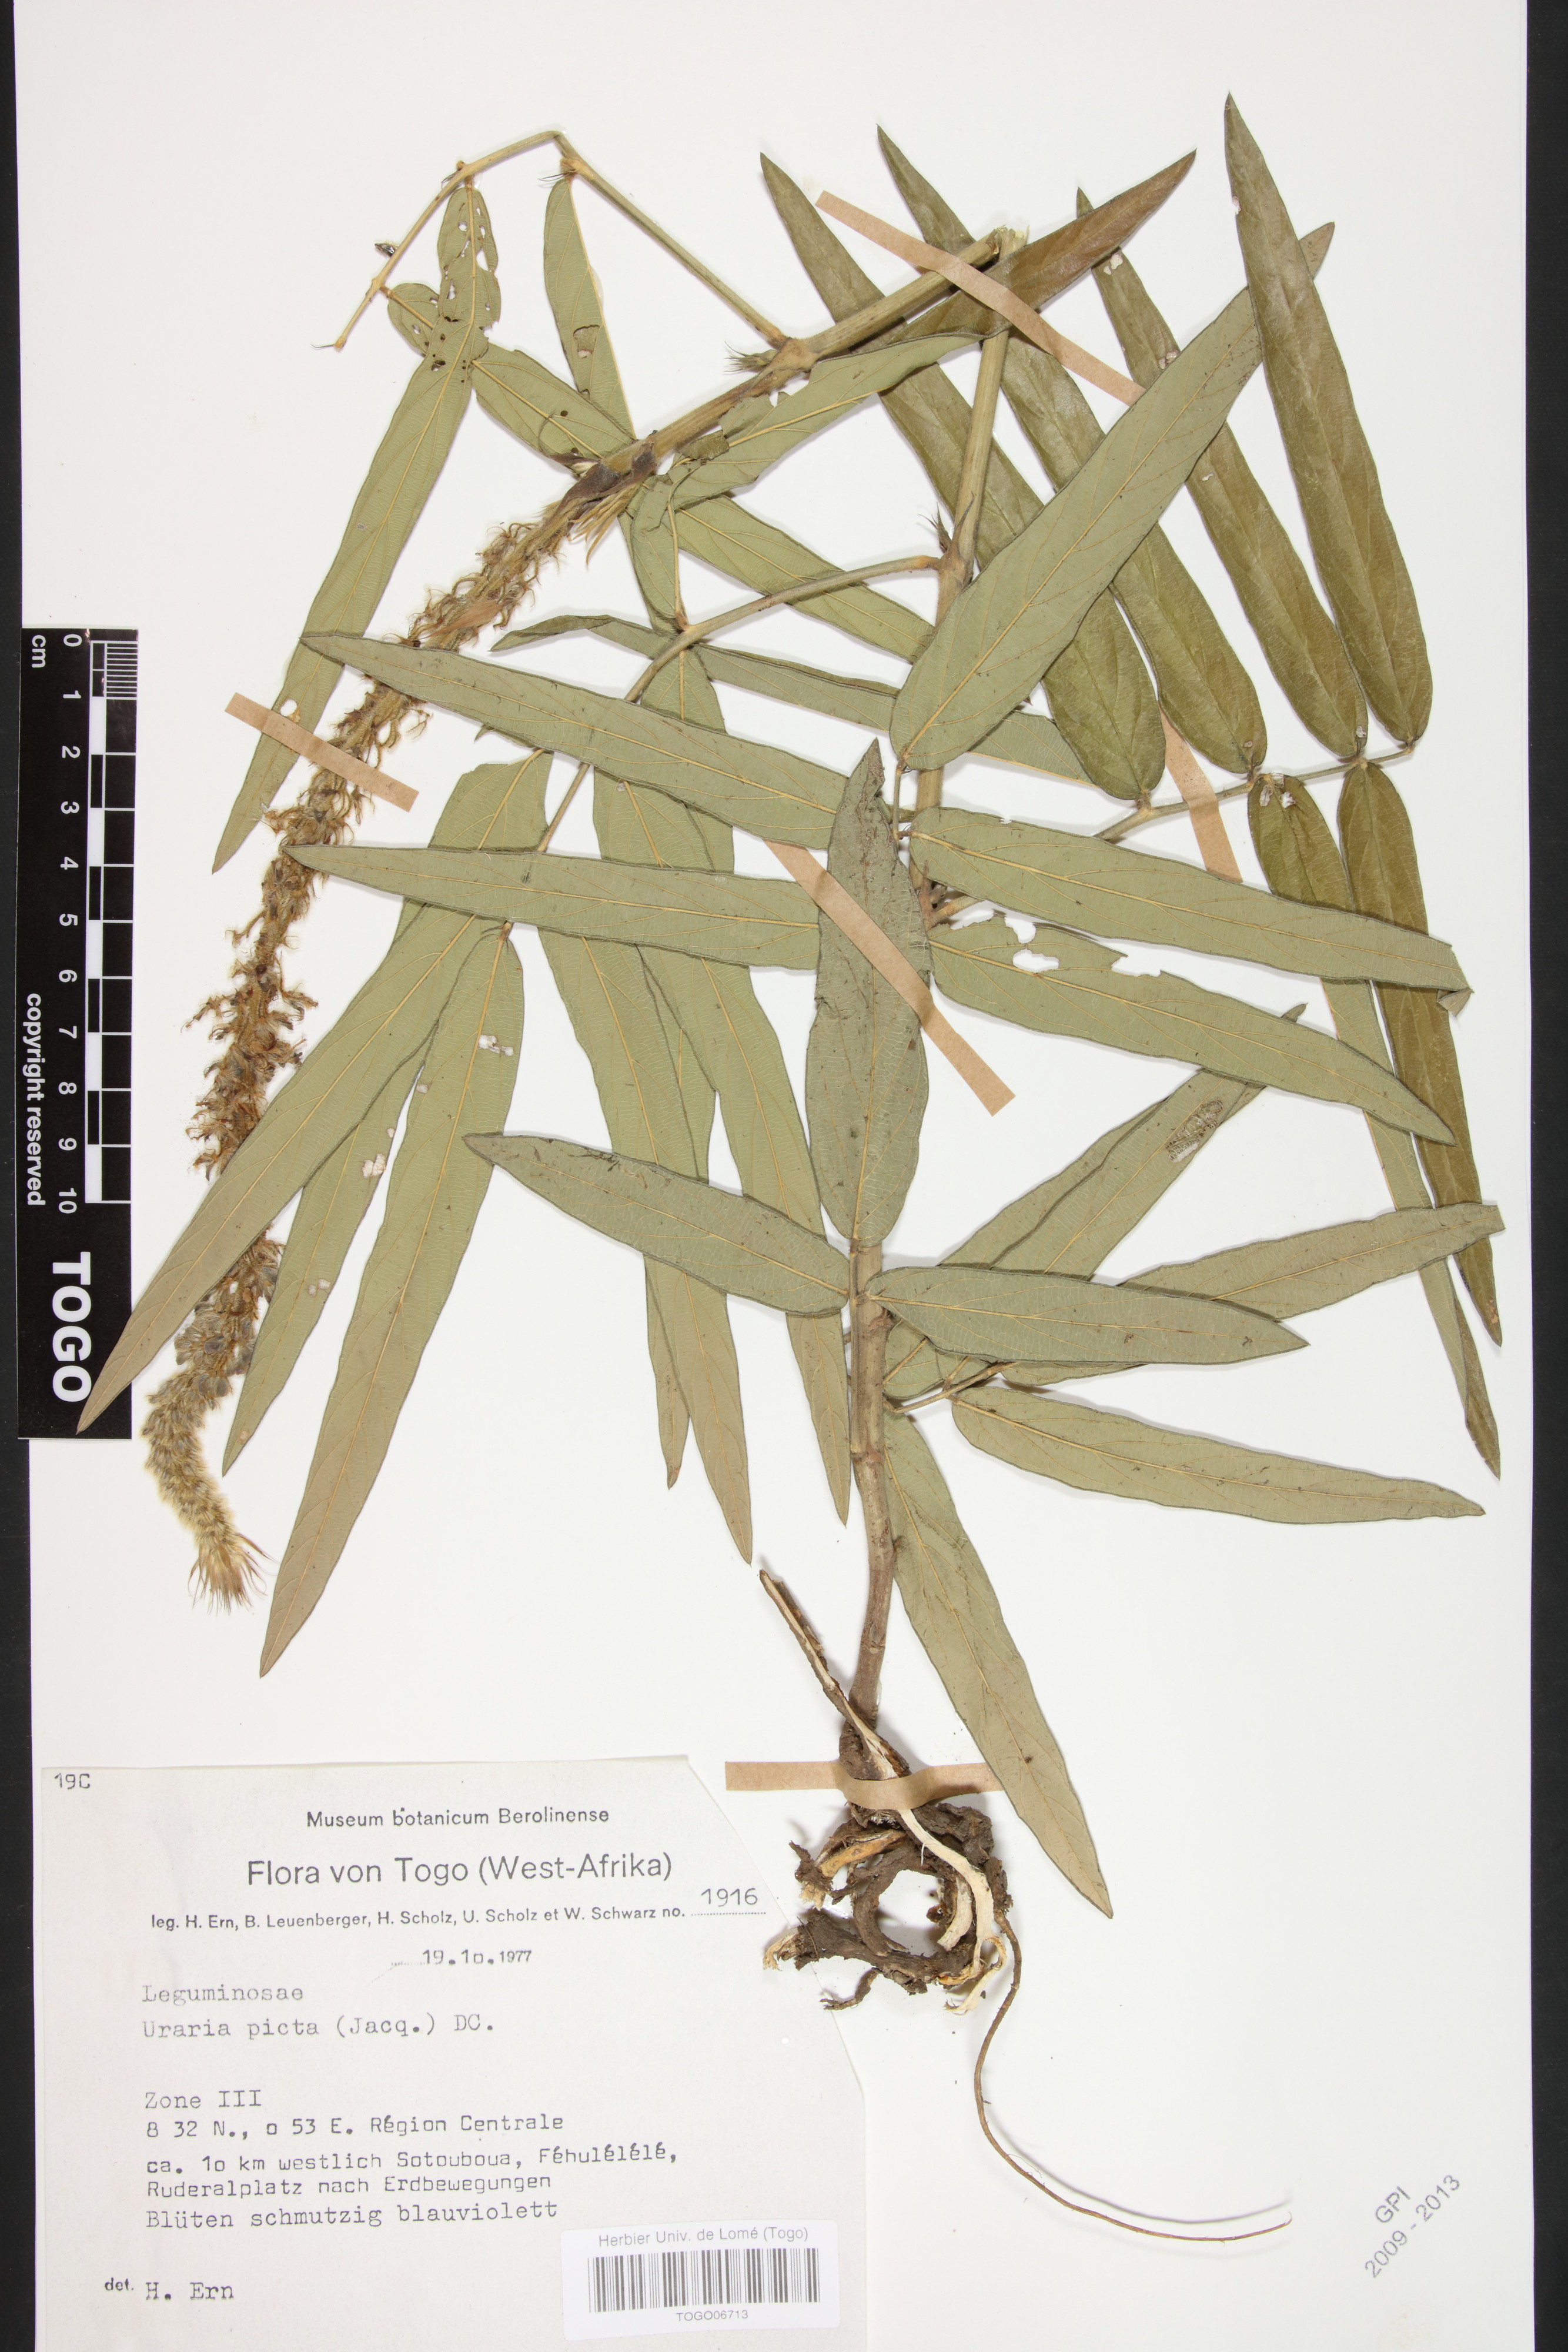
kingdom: Plantae
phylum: Tracheophyta
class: Magnoliopsida
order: Fabales
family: Fabaceae
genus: Uraria
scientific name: Uraria picta
